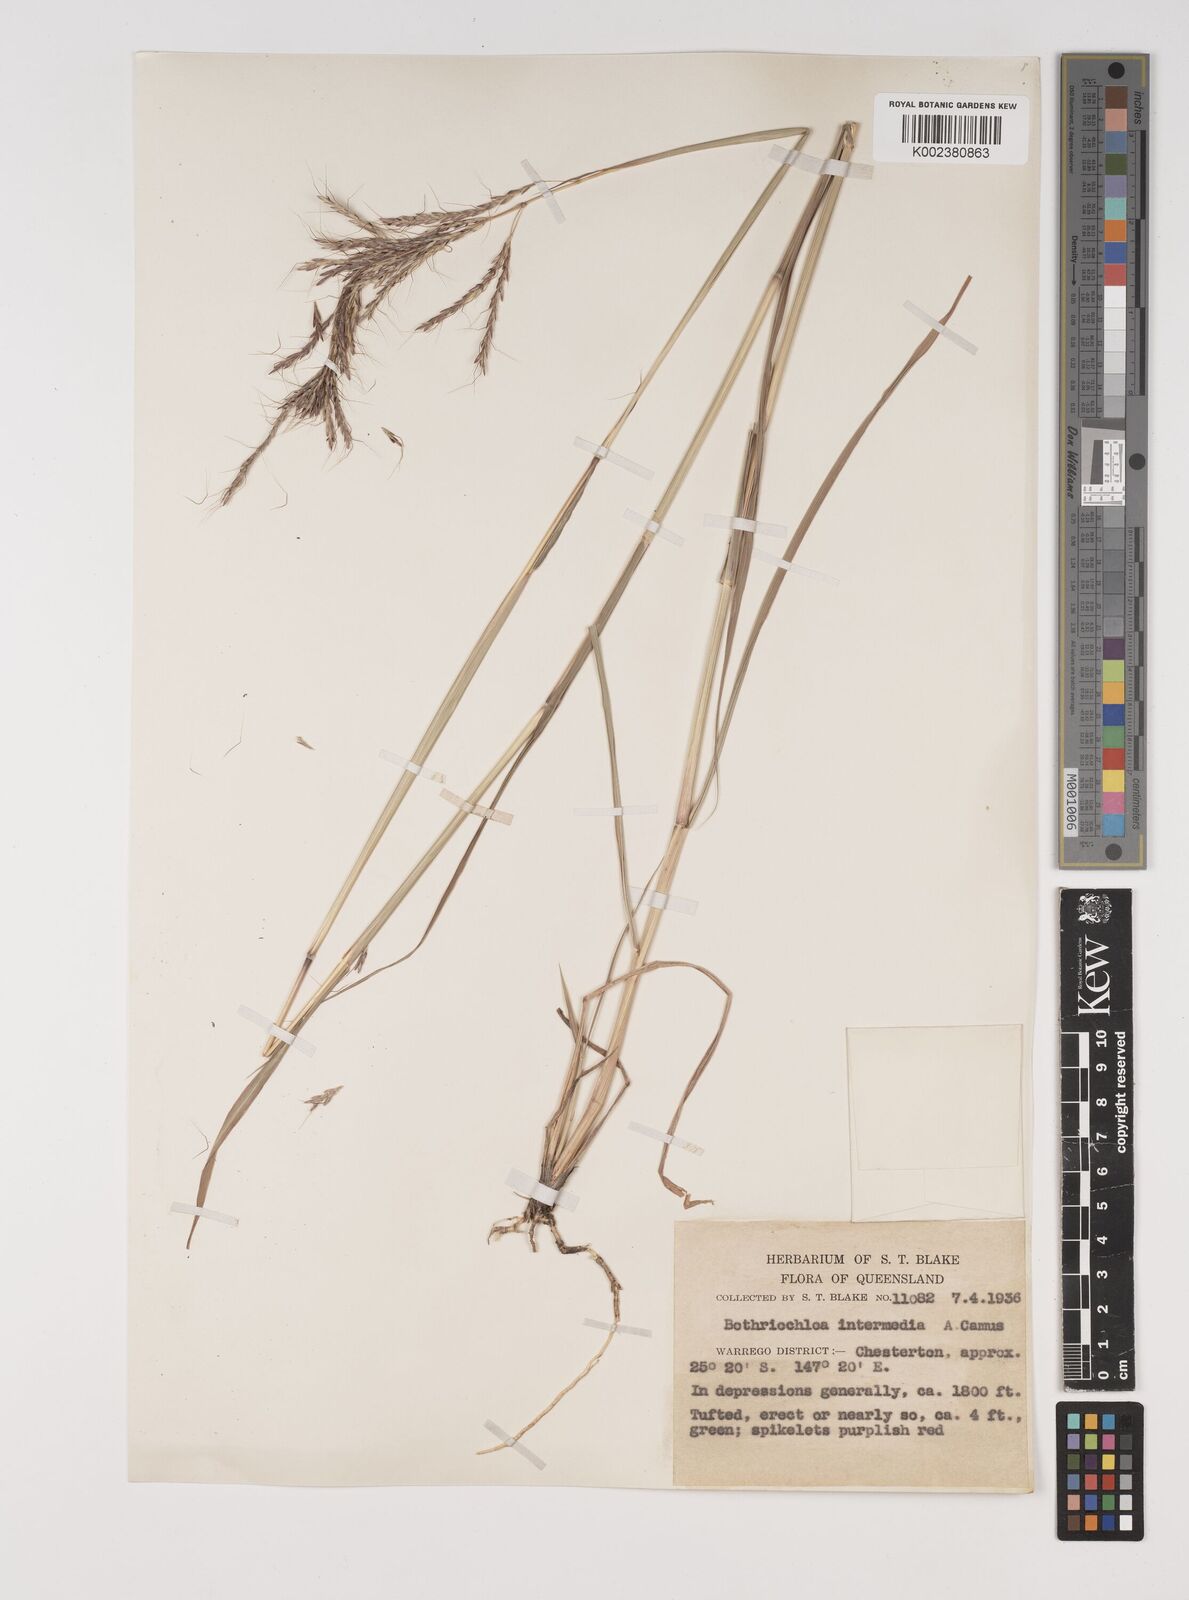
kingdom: Plantae
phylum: Tracheophyta
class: Liliopsida
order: Poales
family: Poaceae
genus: Bothriochloa
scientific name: Bothriochloa bladhii
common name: Caucasian bluestem
